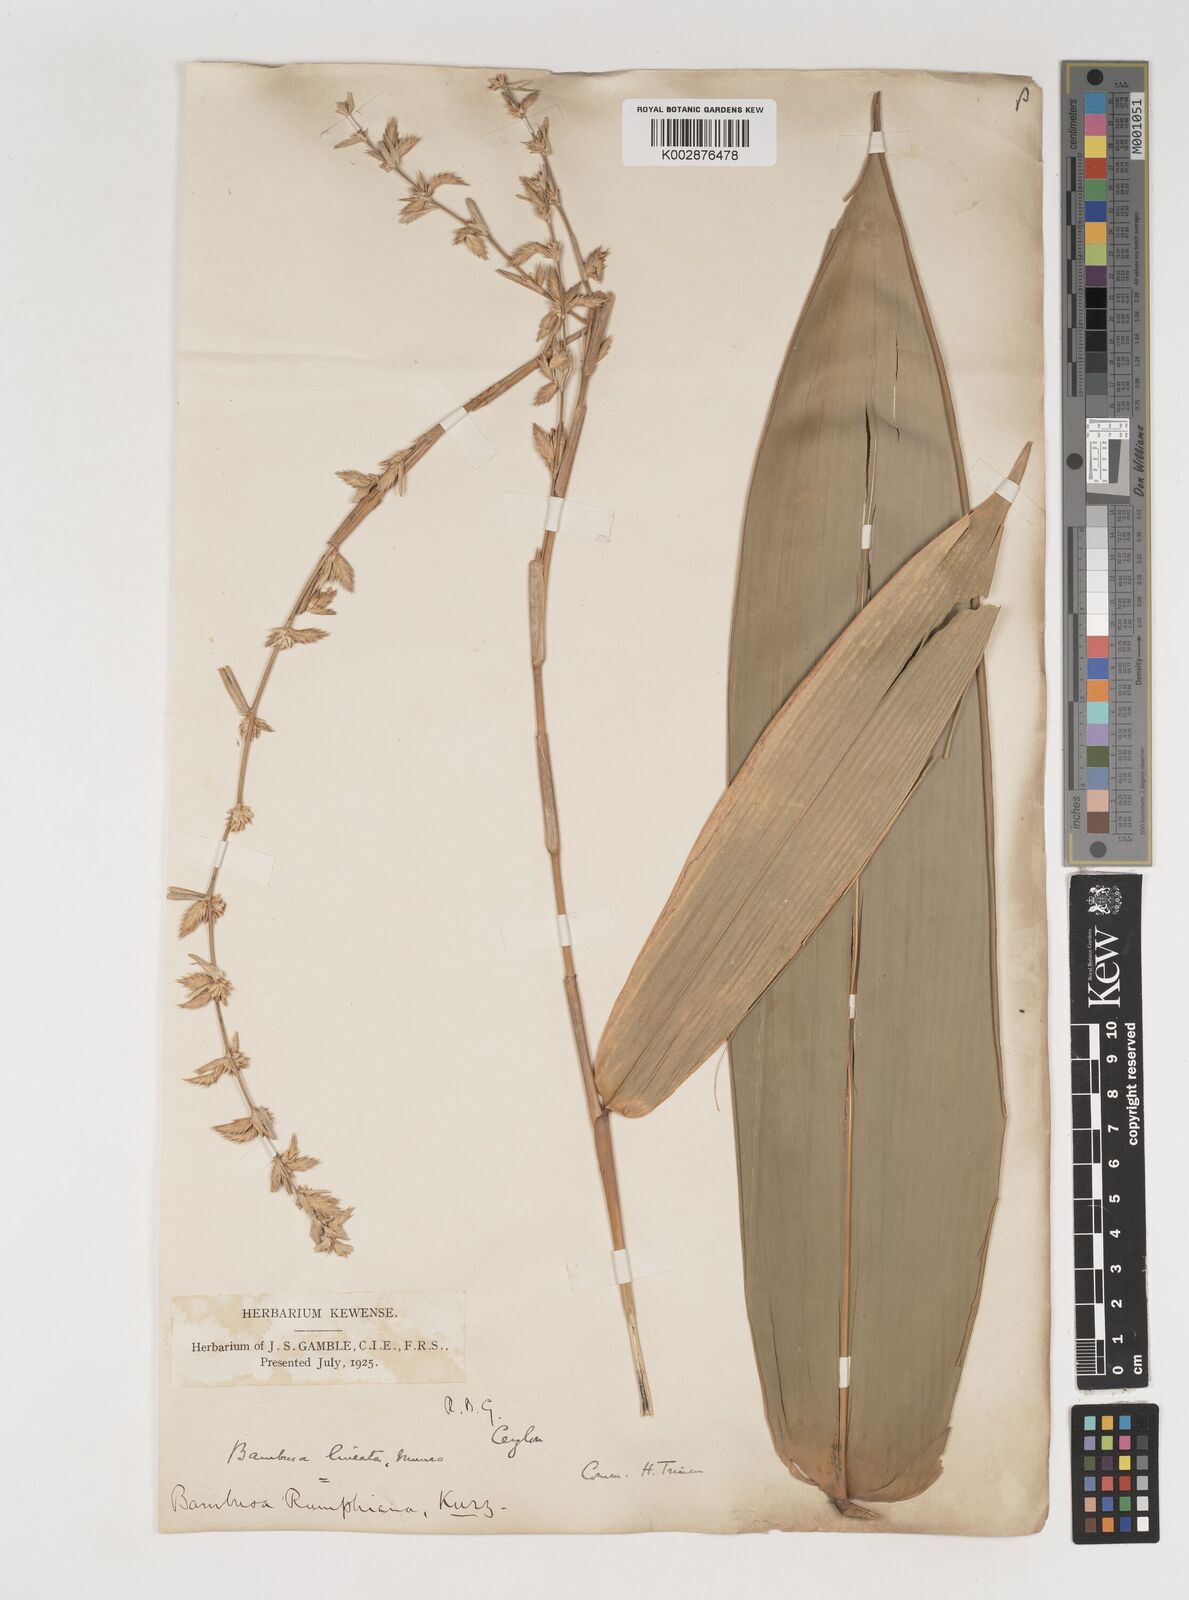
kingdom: Plantae
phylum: Tracheophyta
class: Liliopsida
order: Poales
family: Poaceae
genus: Neololeba
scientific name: Neololeba amahussana
